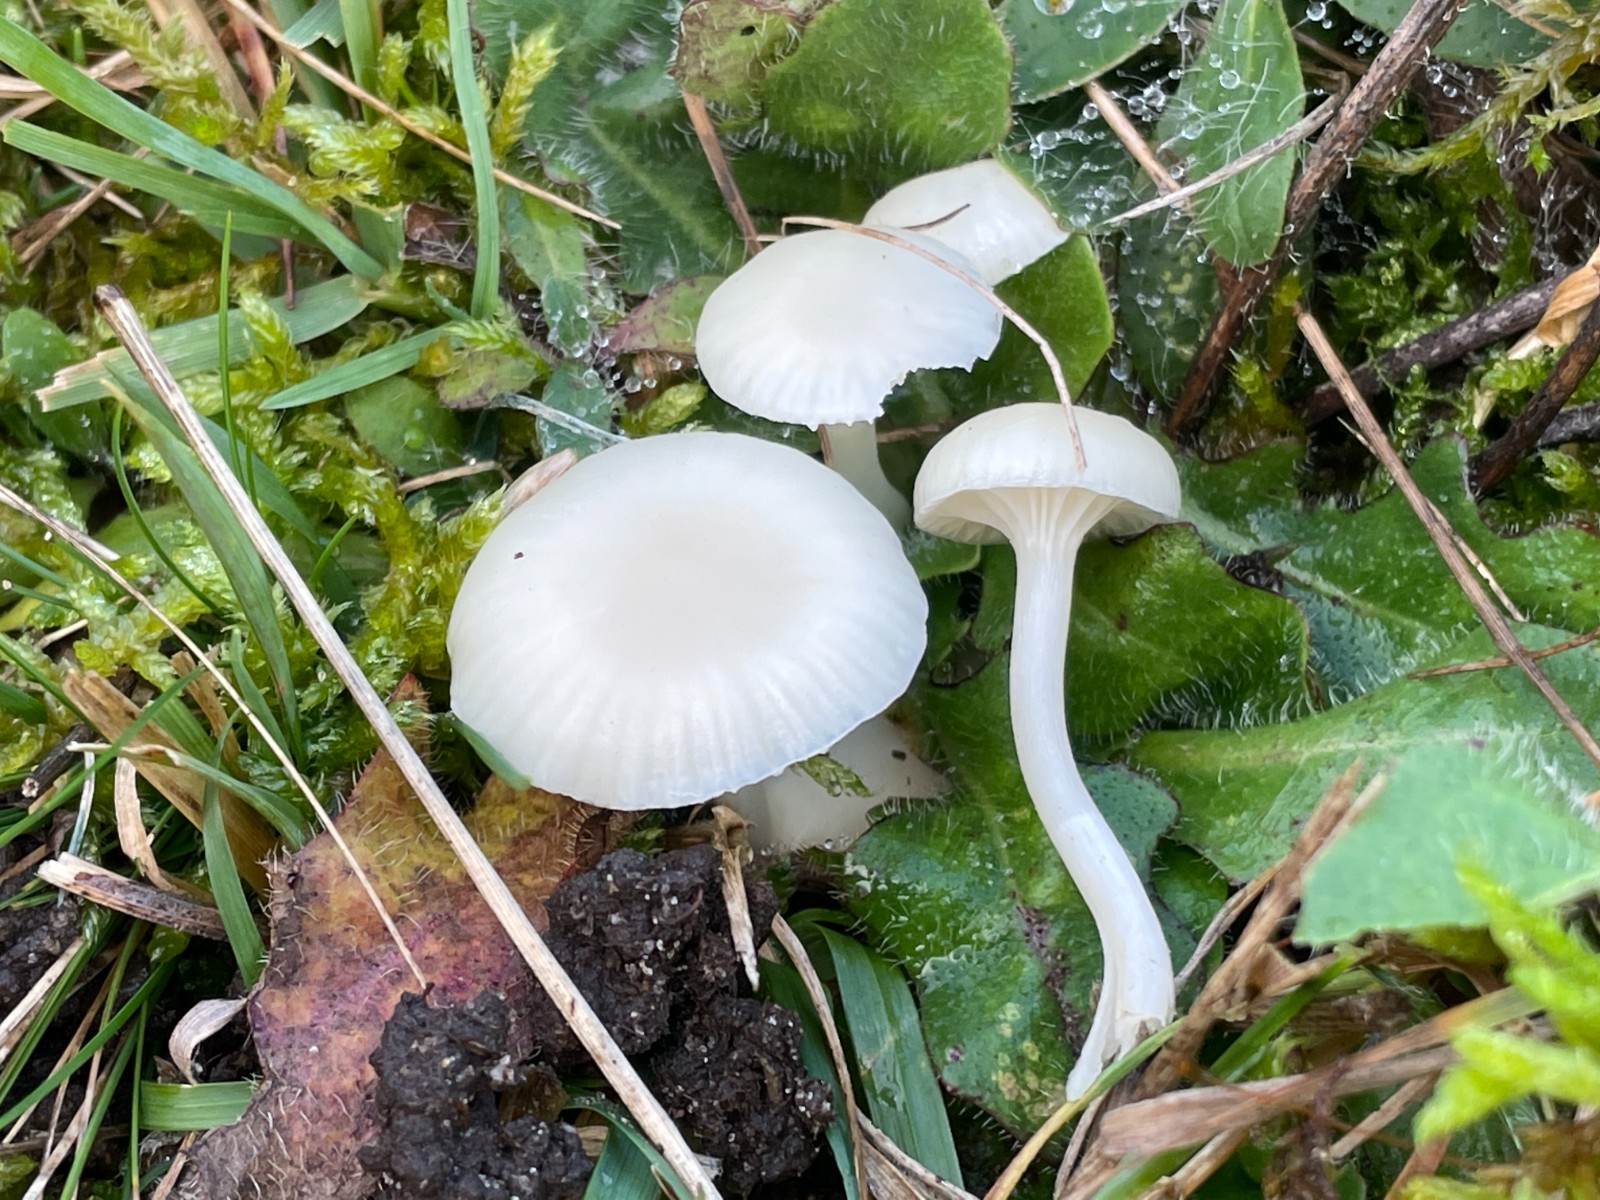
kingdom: Fungi
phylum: Basidiomycota
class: Agaricomycetes
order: Agaricales
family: Hygrophoraceae
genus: Cuphophyllus
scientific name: Cuphophyllus virgineus
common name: snehvid vokshat
